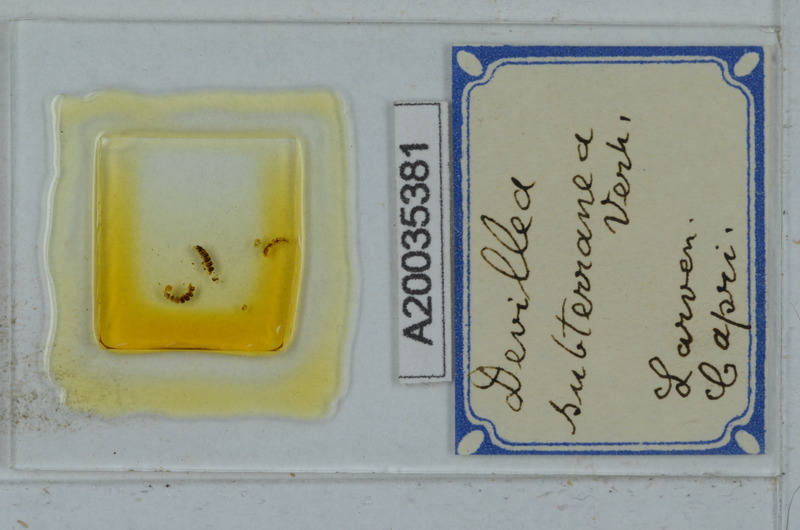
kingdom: Animalia
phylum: Arthropoda
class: Diplopoda
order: Polydesmida
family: Xystodesmidae
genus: Devillea
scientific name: Devillea subterranea
